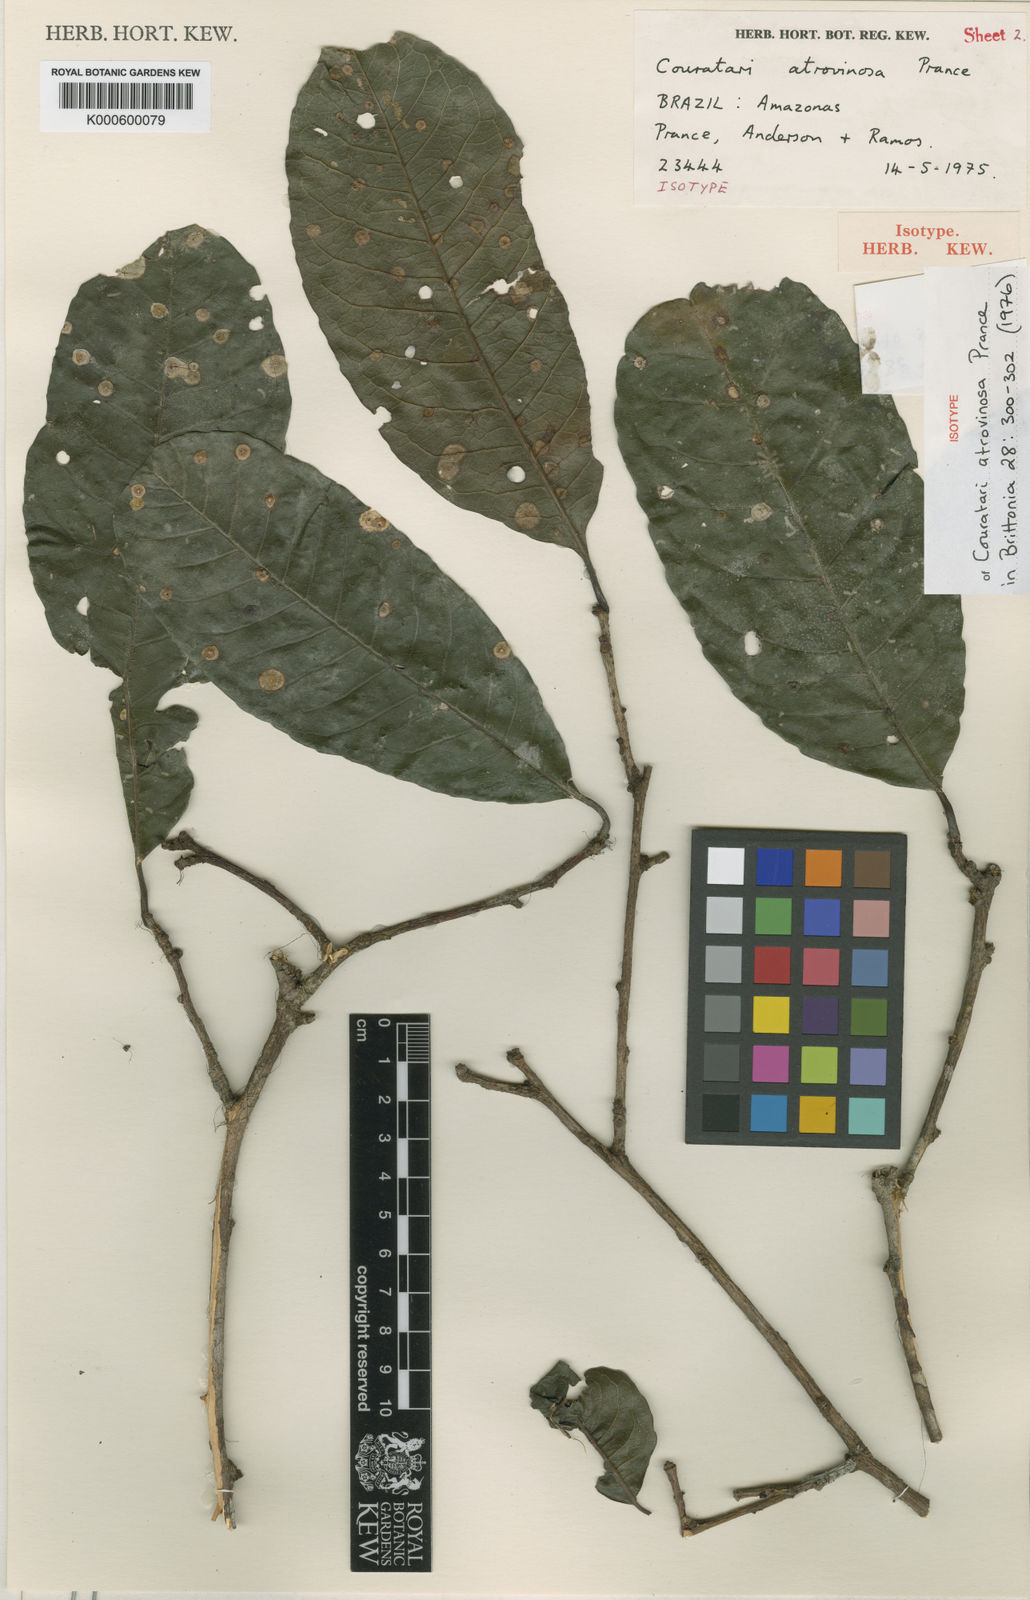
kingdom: Plantae
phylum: Tracheophyta
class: Magnoliopsida
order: Ericales
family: Lecythidaceae
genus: Couratari
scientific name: Couratari atrovinosa
